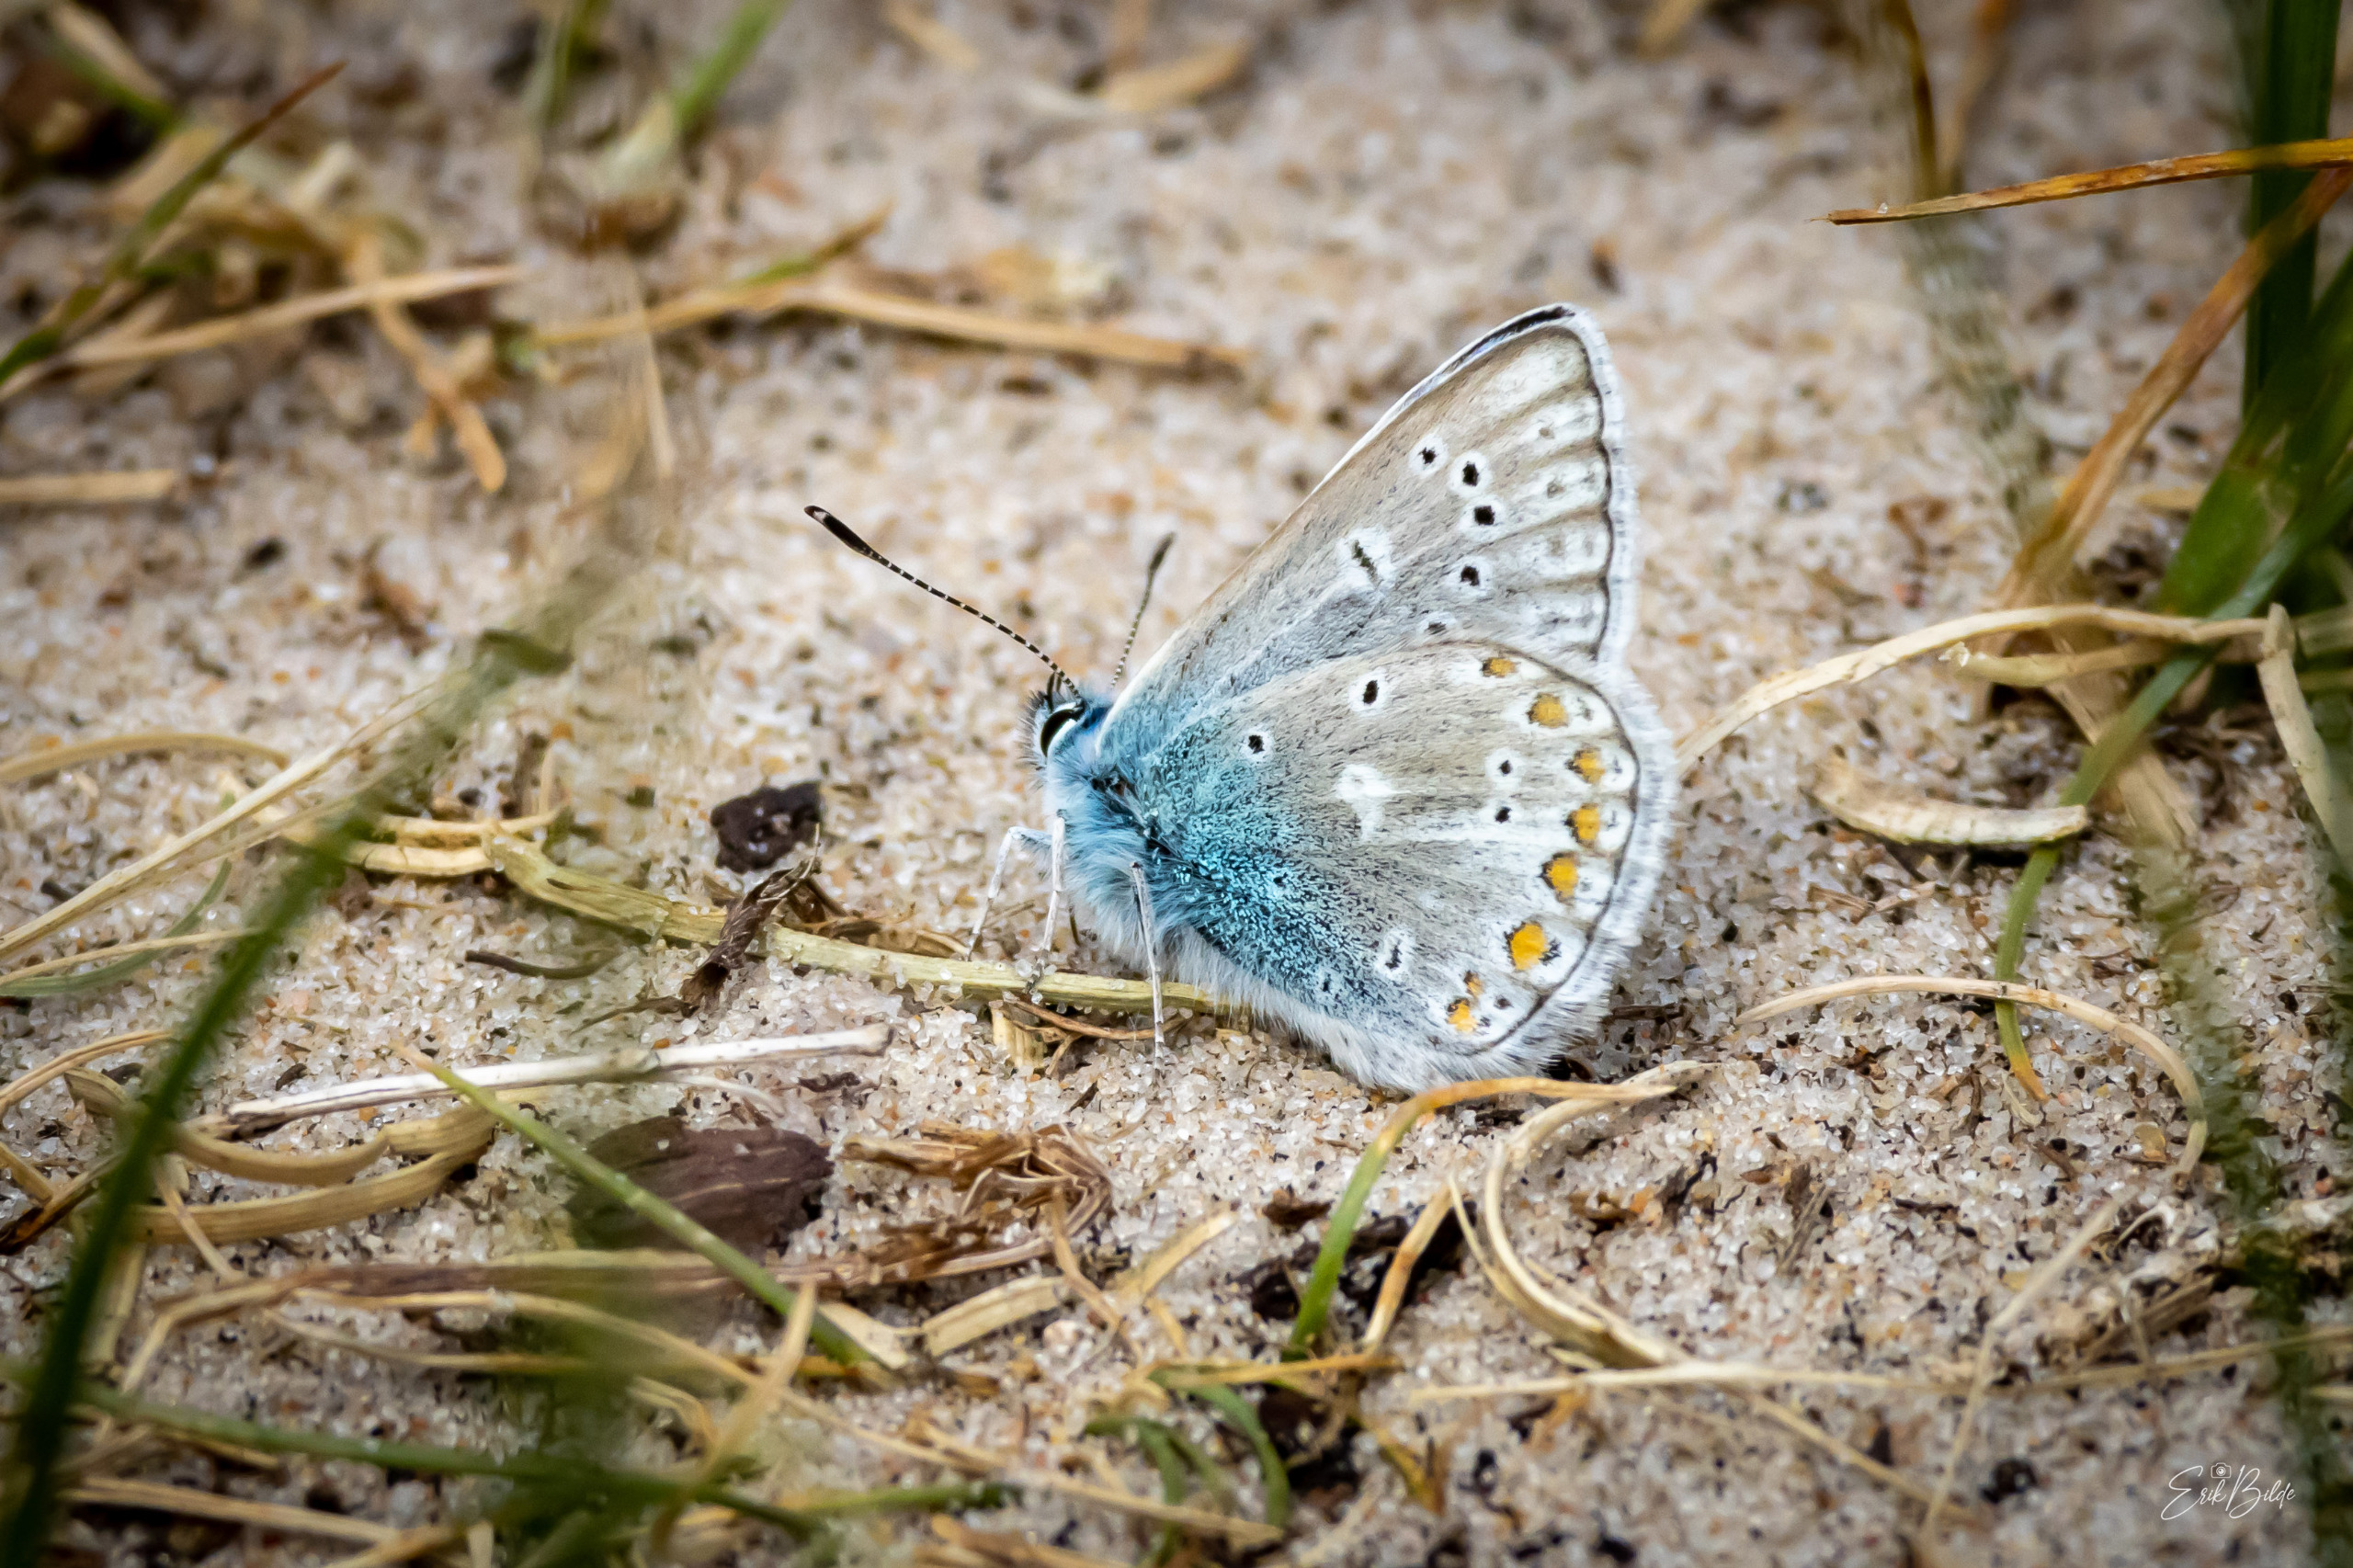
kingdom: Animalia
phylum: Arthropoda
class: Insecta
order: Lepidoptera
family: Lycaenidae
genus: Polyommatus
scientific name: Polyommatus icarus
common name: Almindelig blåfugl
